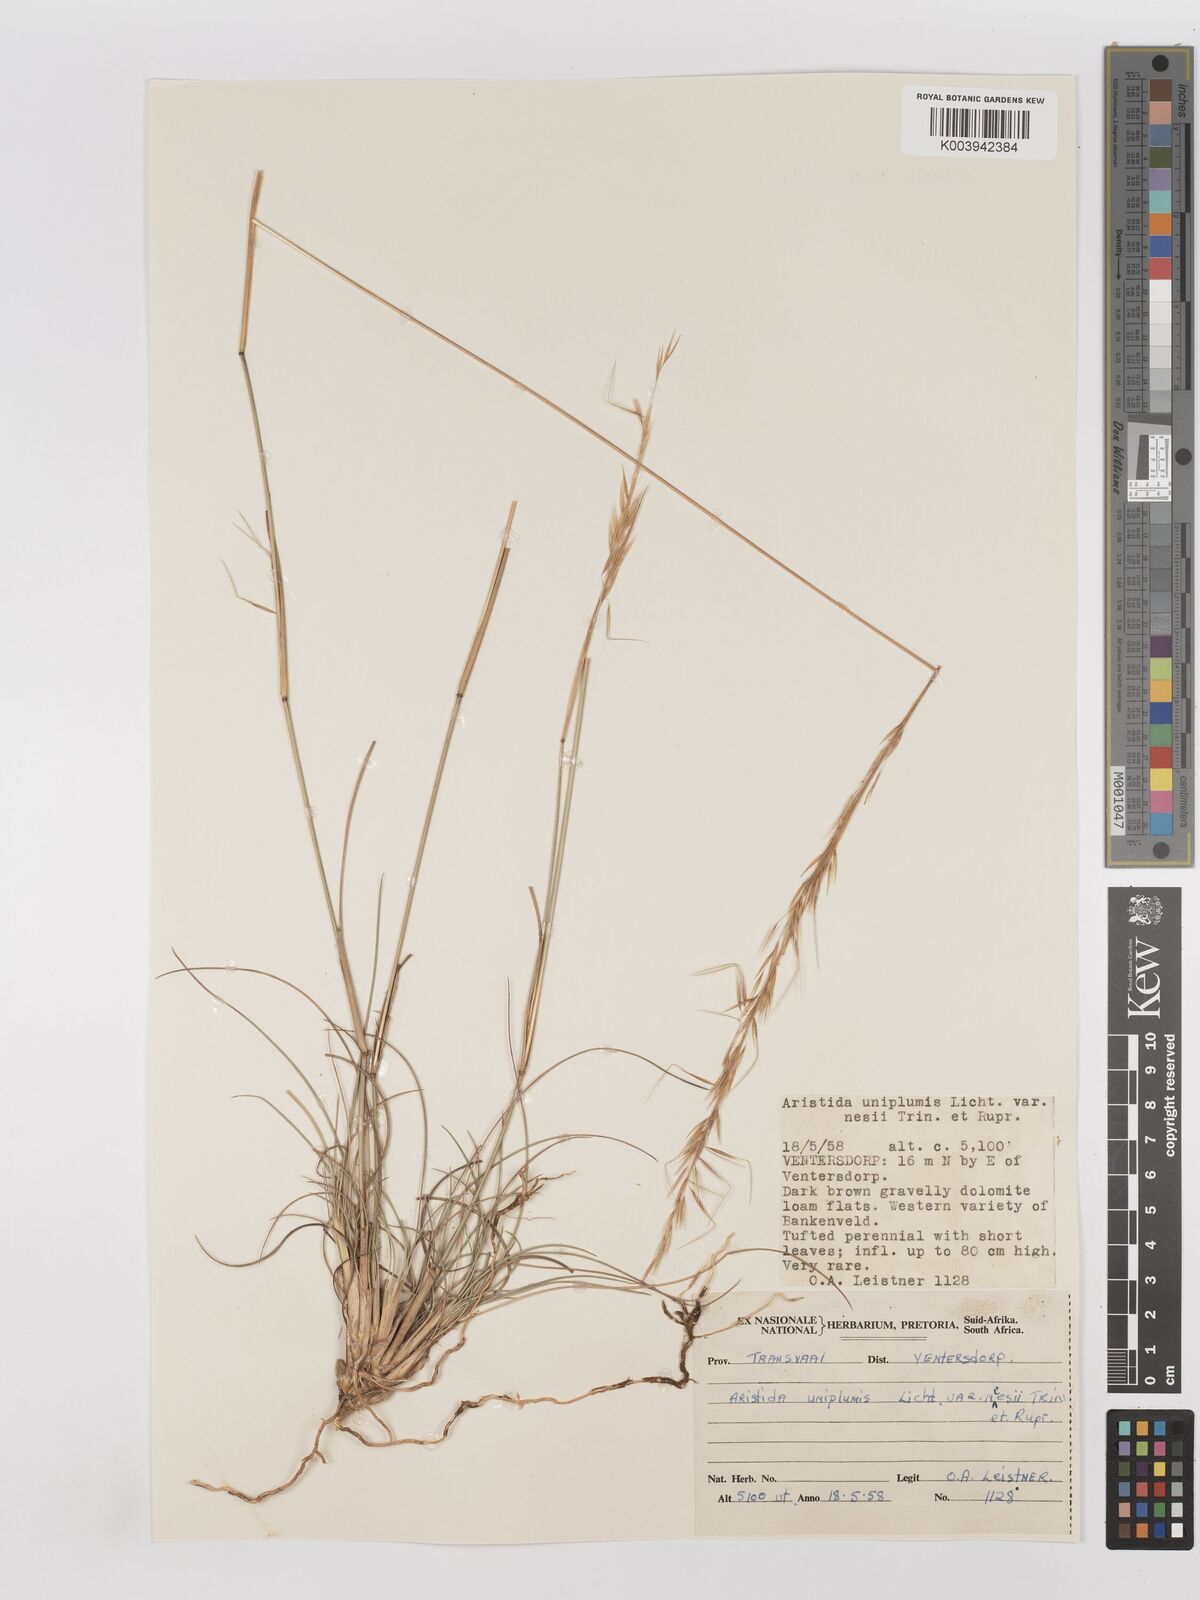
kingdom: Plantae
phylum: Tracheophyta
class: Liliopsida
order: Poales
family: Poaceae
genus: Stipagrostis
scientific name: Stipagrostis uniplumis
